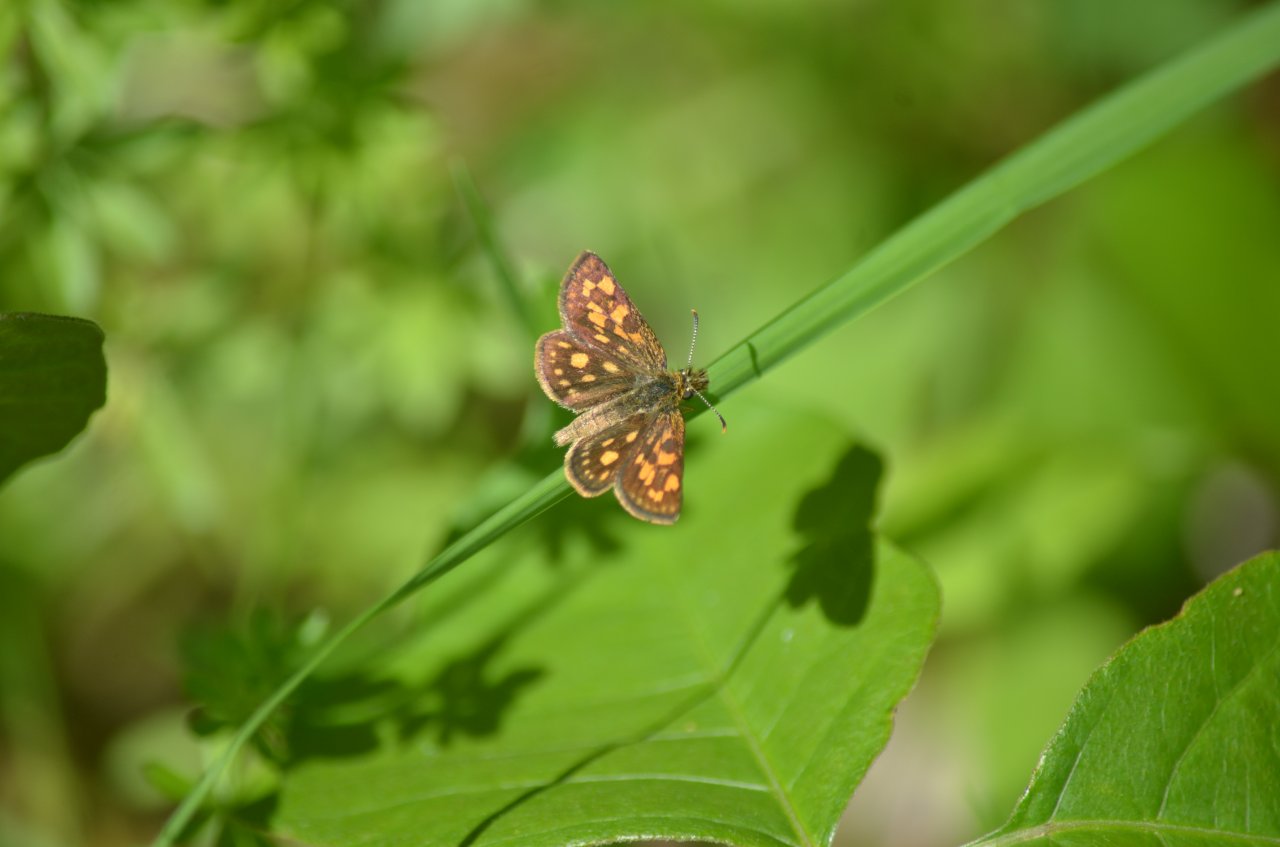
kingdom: Animalia
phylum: Arthropoda
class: Insecta
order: Lepidoptera
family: Hesperiidae
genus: Carterocephalus
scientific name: Carterocephalus palaemon
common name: Chequered Skipper
